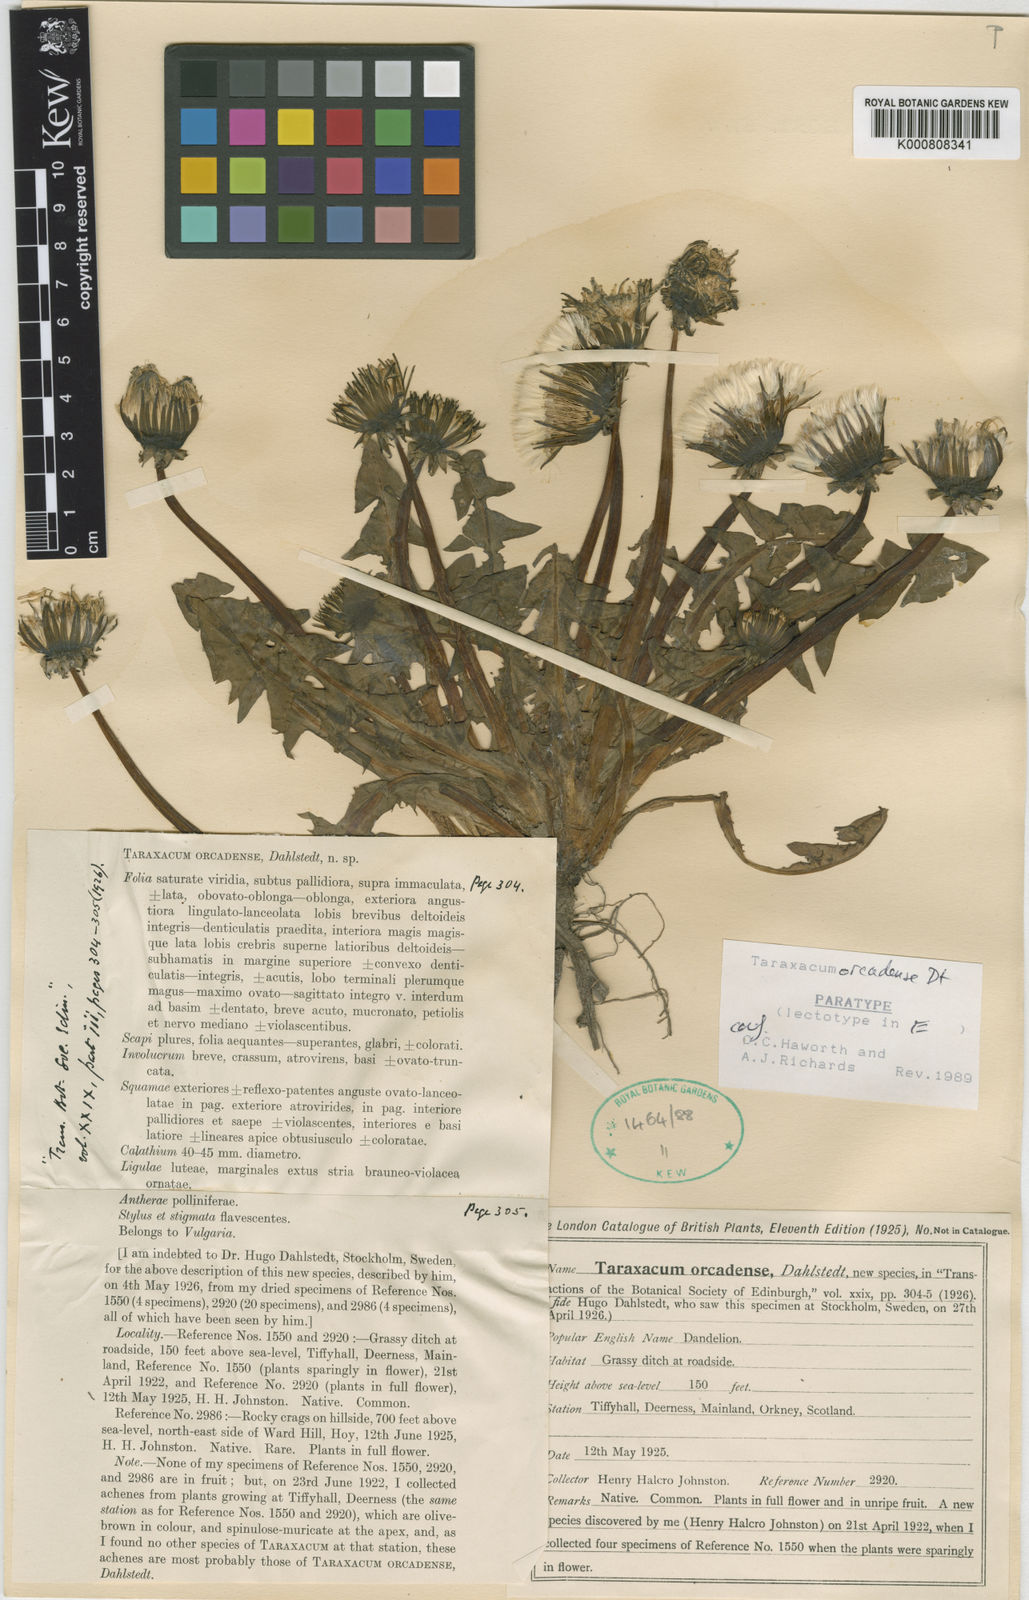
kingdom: Plantae
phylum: Tracheophyta
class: Magnoliopsida
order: Asterales
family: Asteraceae
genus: Taraxacum
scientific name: Taraxacum orcadense
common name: Large-lobed dandelion
